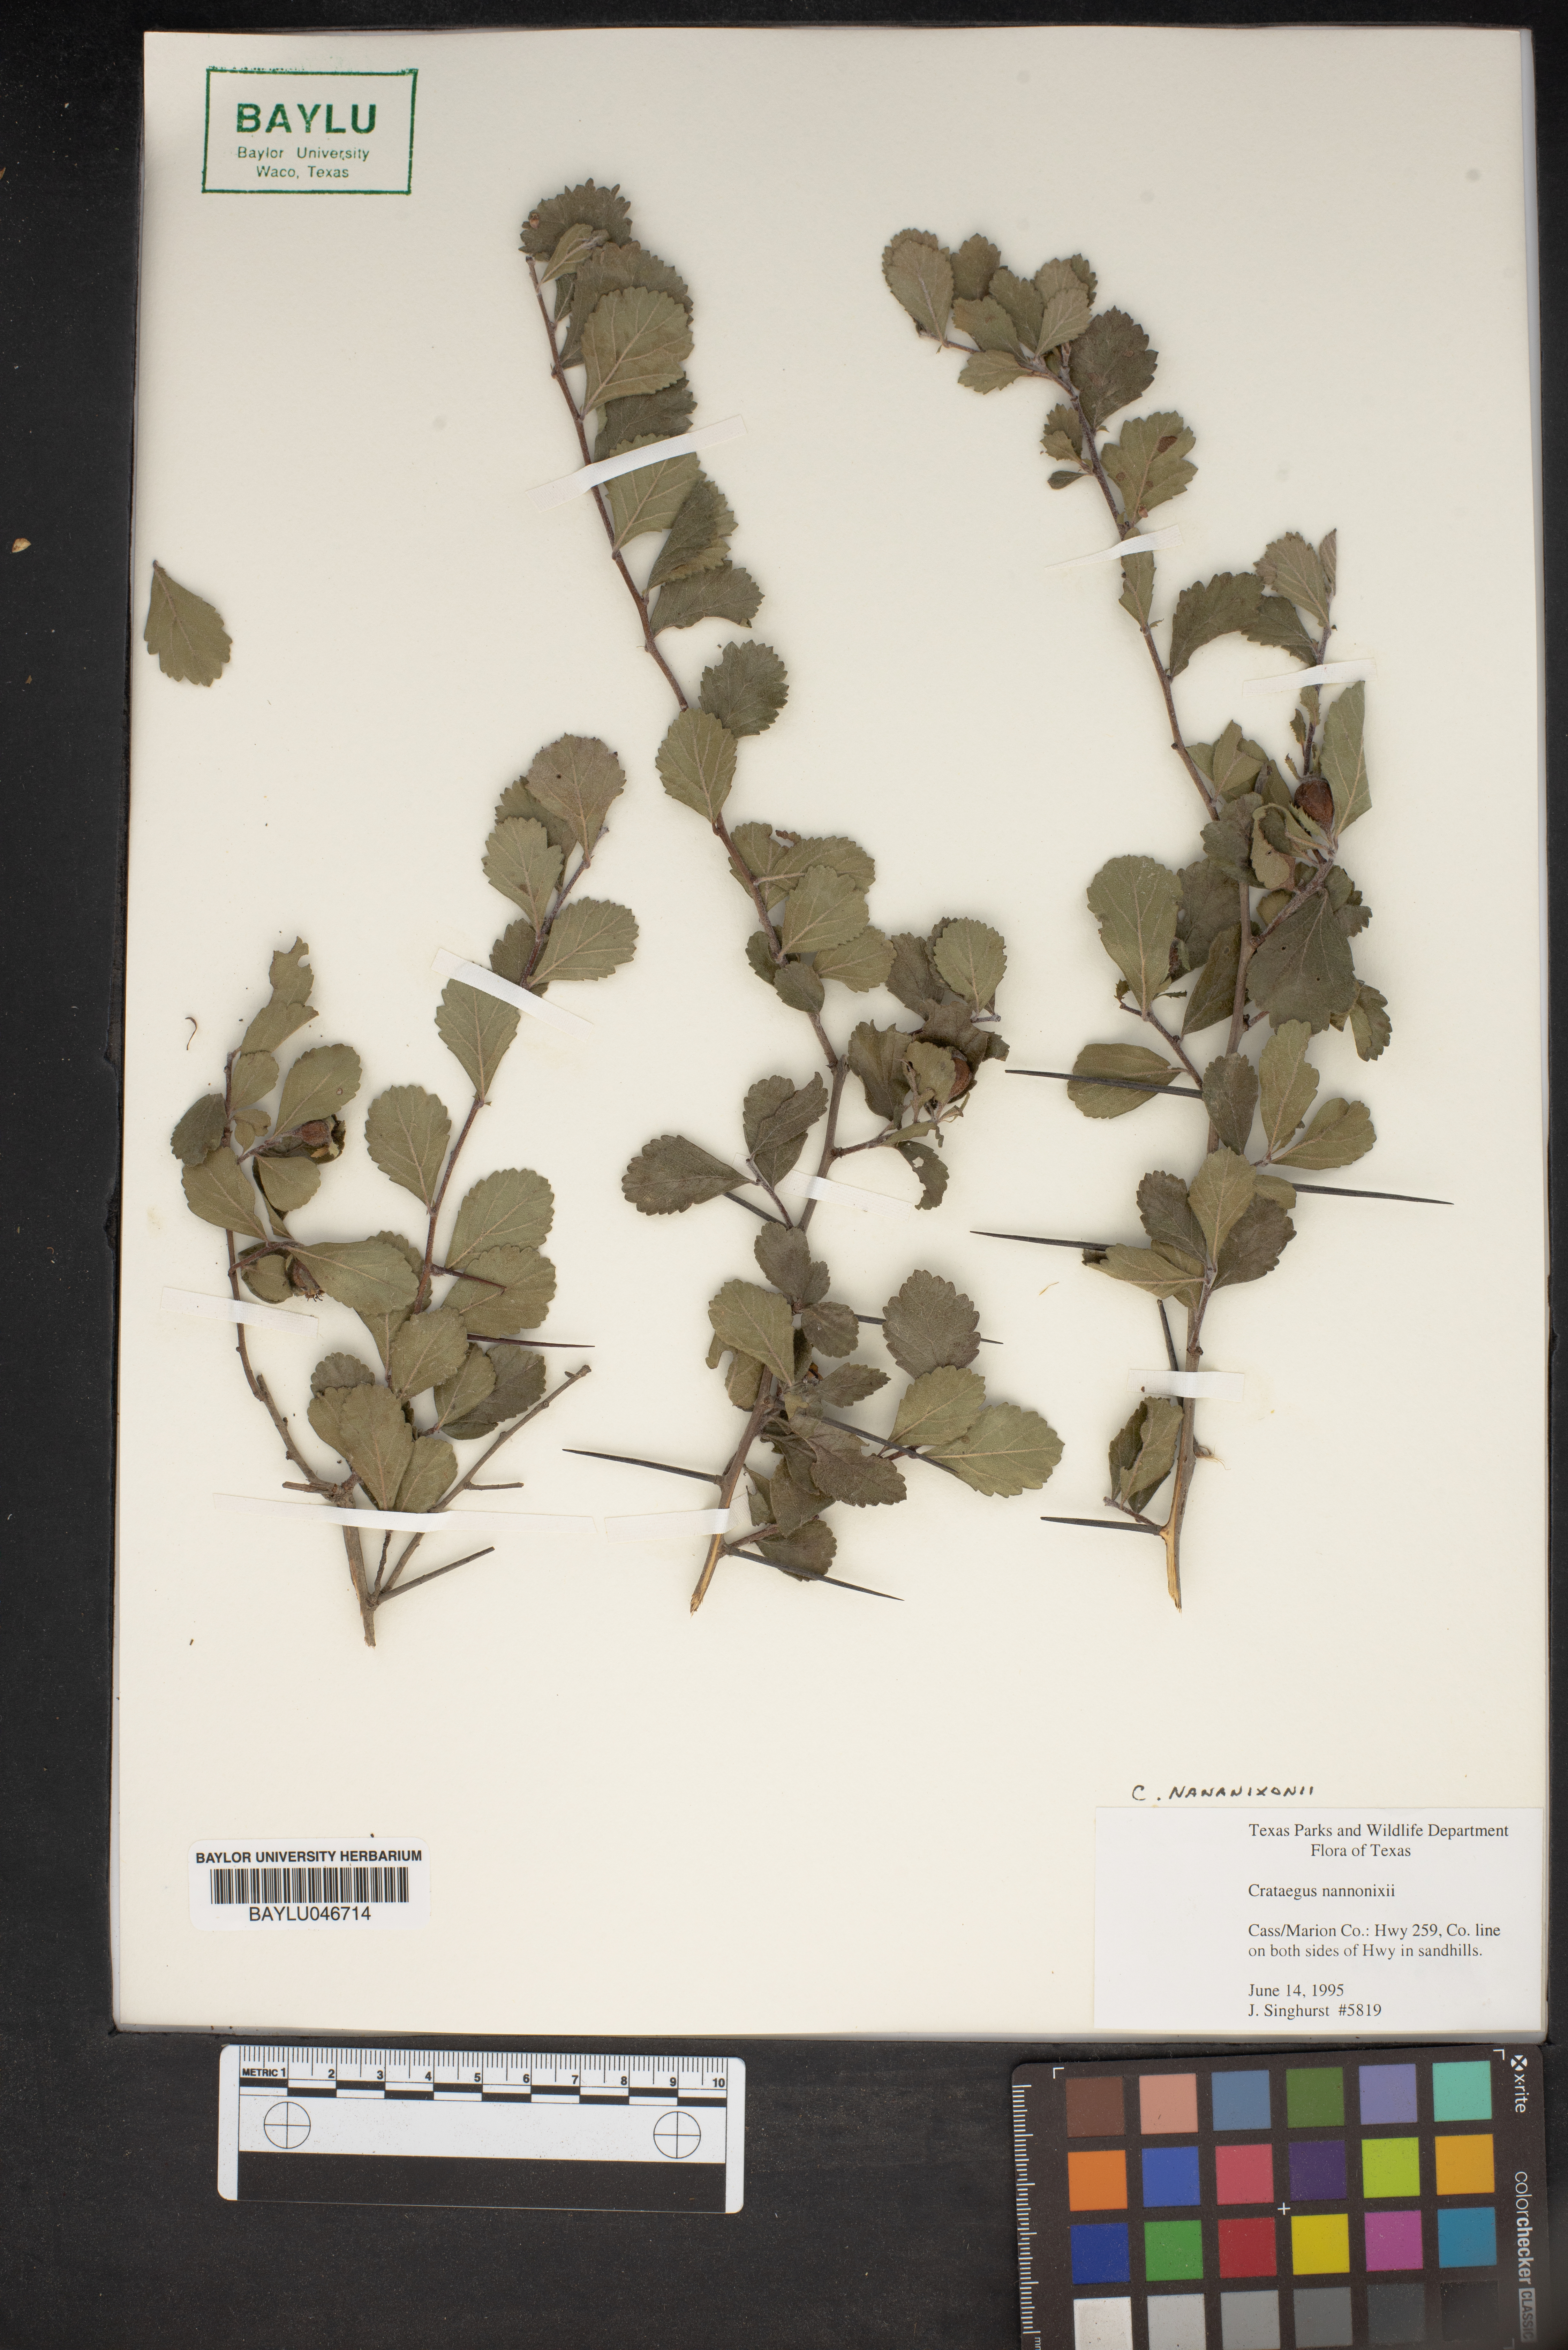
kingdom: Plantae
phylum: Tracheophyta
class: Magnoliopsida
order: Rosales
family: Rosaceae
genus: Crataegus
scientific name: Crataegus nananixonii
